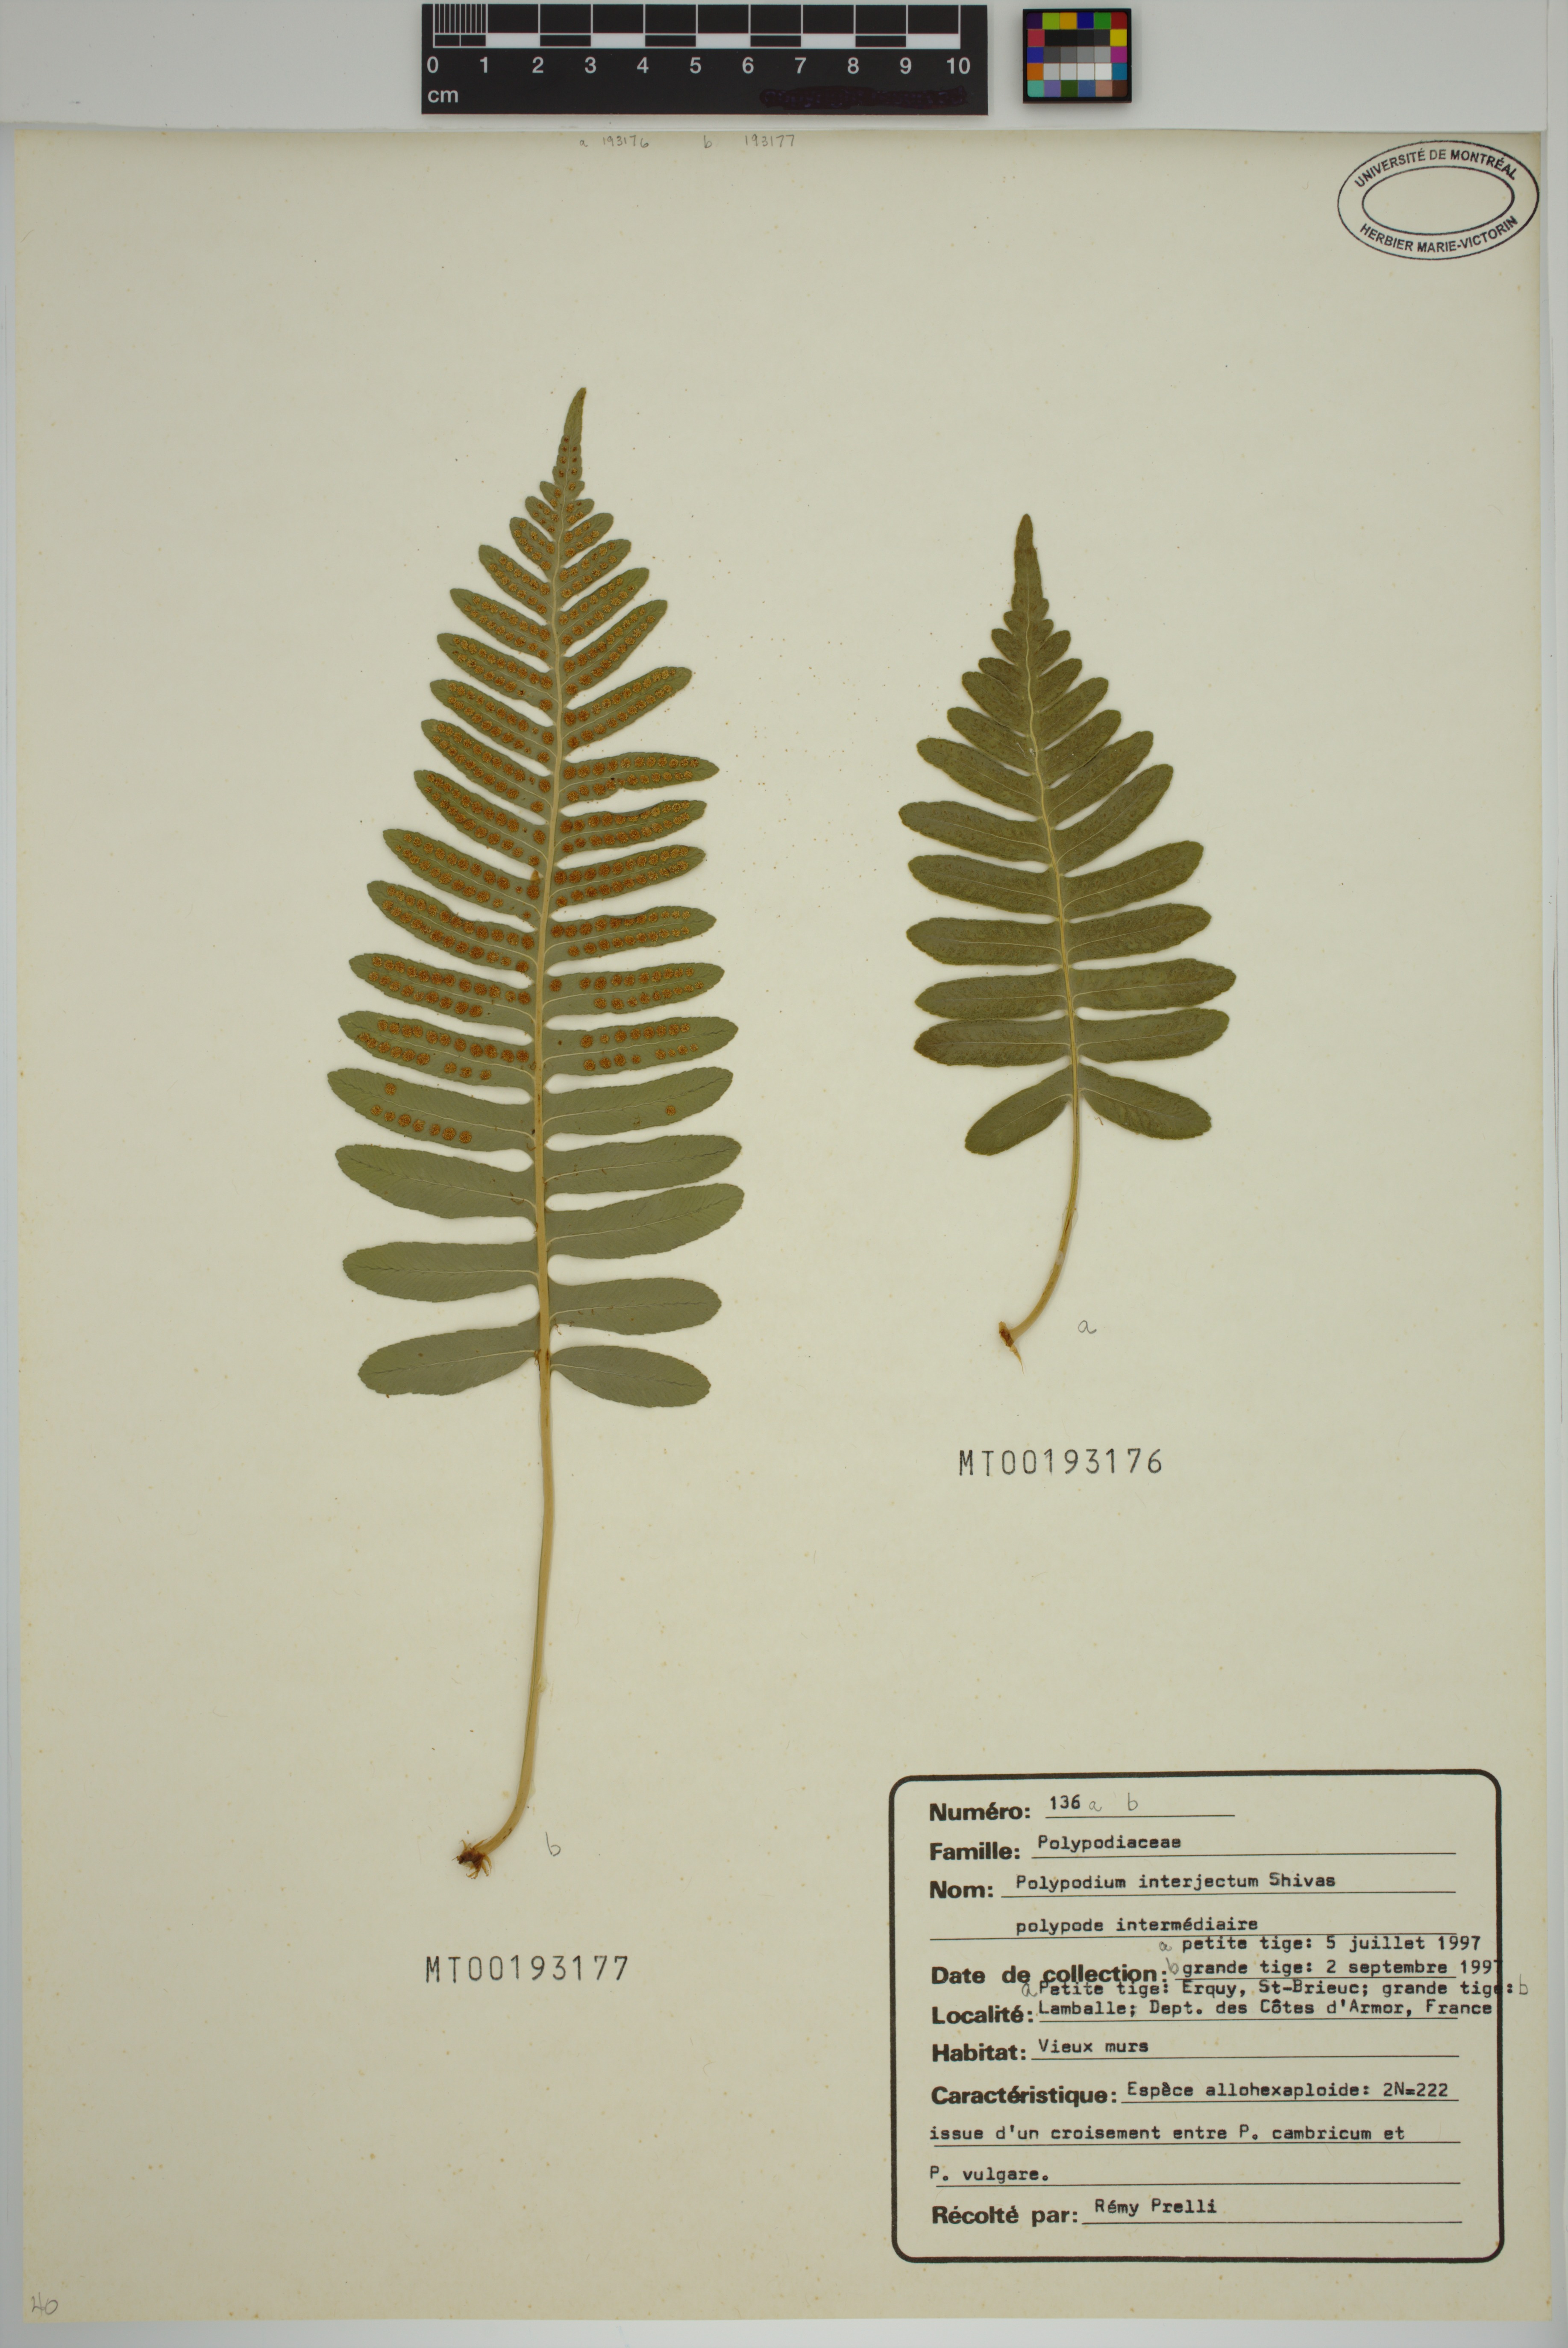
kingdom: Plantae
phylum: Tracheophyta
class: Polypodiopsida
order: Polypodiales
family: Polypodiaceae
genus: Polypodium
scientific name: Polypodium interjectum
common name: Intermediate polypody
